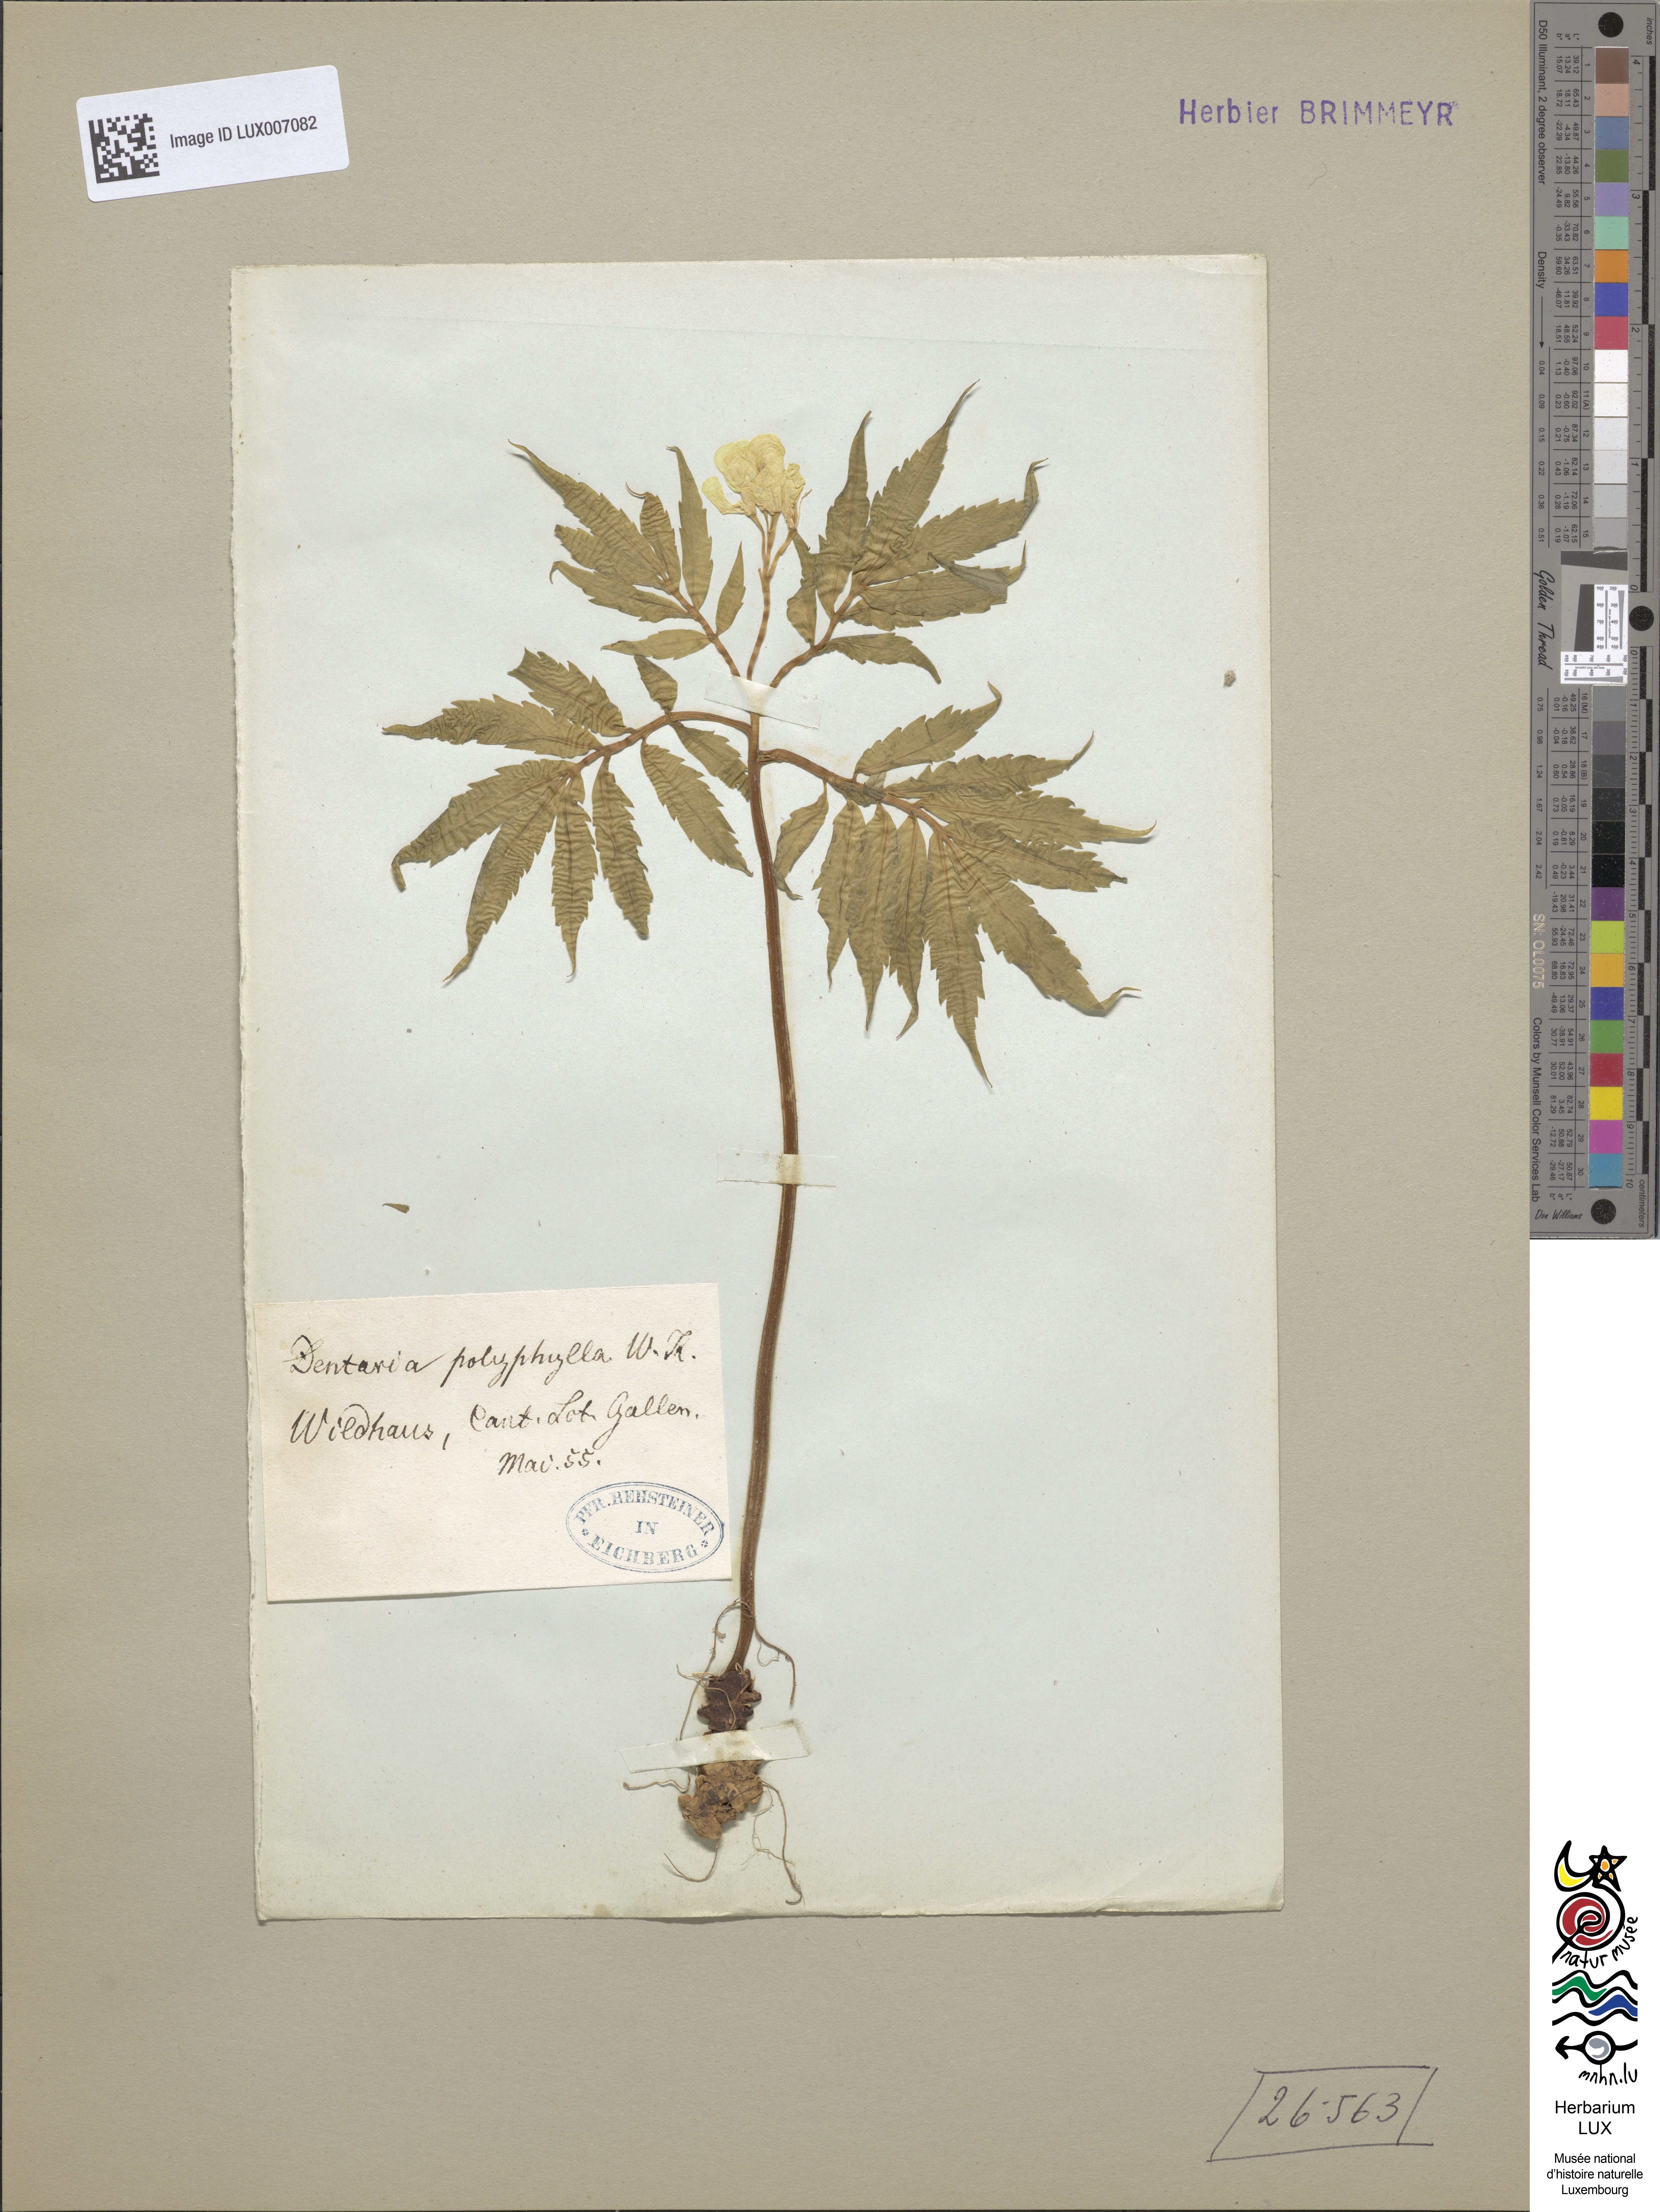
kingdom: Plantae
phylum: Tracheophyta
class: Magnoliopsida
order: Brassicales
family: Brassicaceae
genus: Cardamine
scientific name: Cardamine kitaibelii
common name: Kitaibel's bitter-cress
